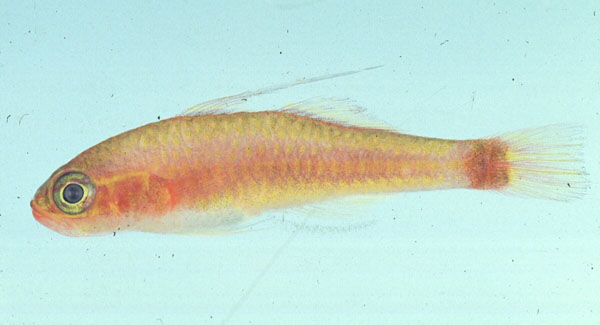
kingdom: Animalia
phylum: Chordata
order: Perciformes
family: Gobiidae
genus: Trimma
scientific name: Trimma tevegae
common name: Blue-striped cave goby
